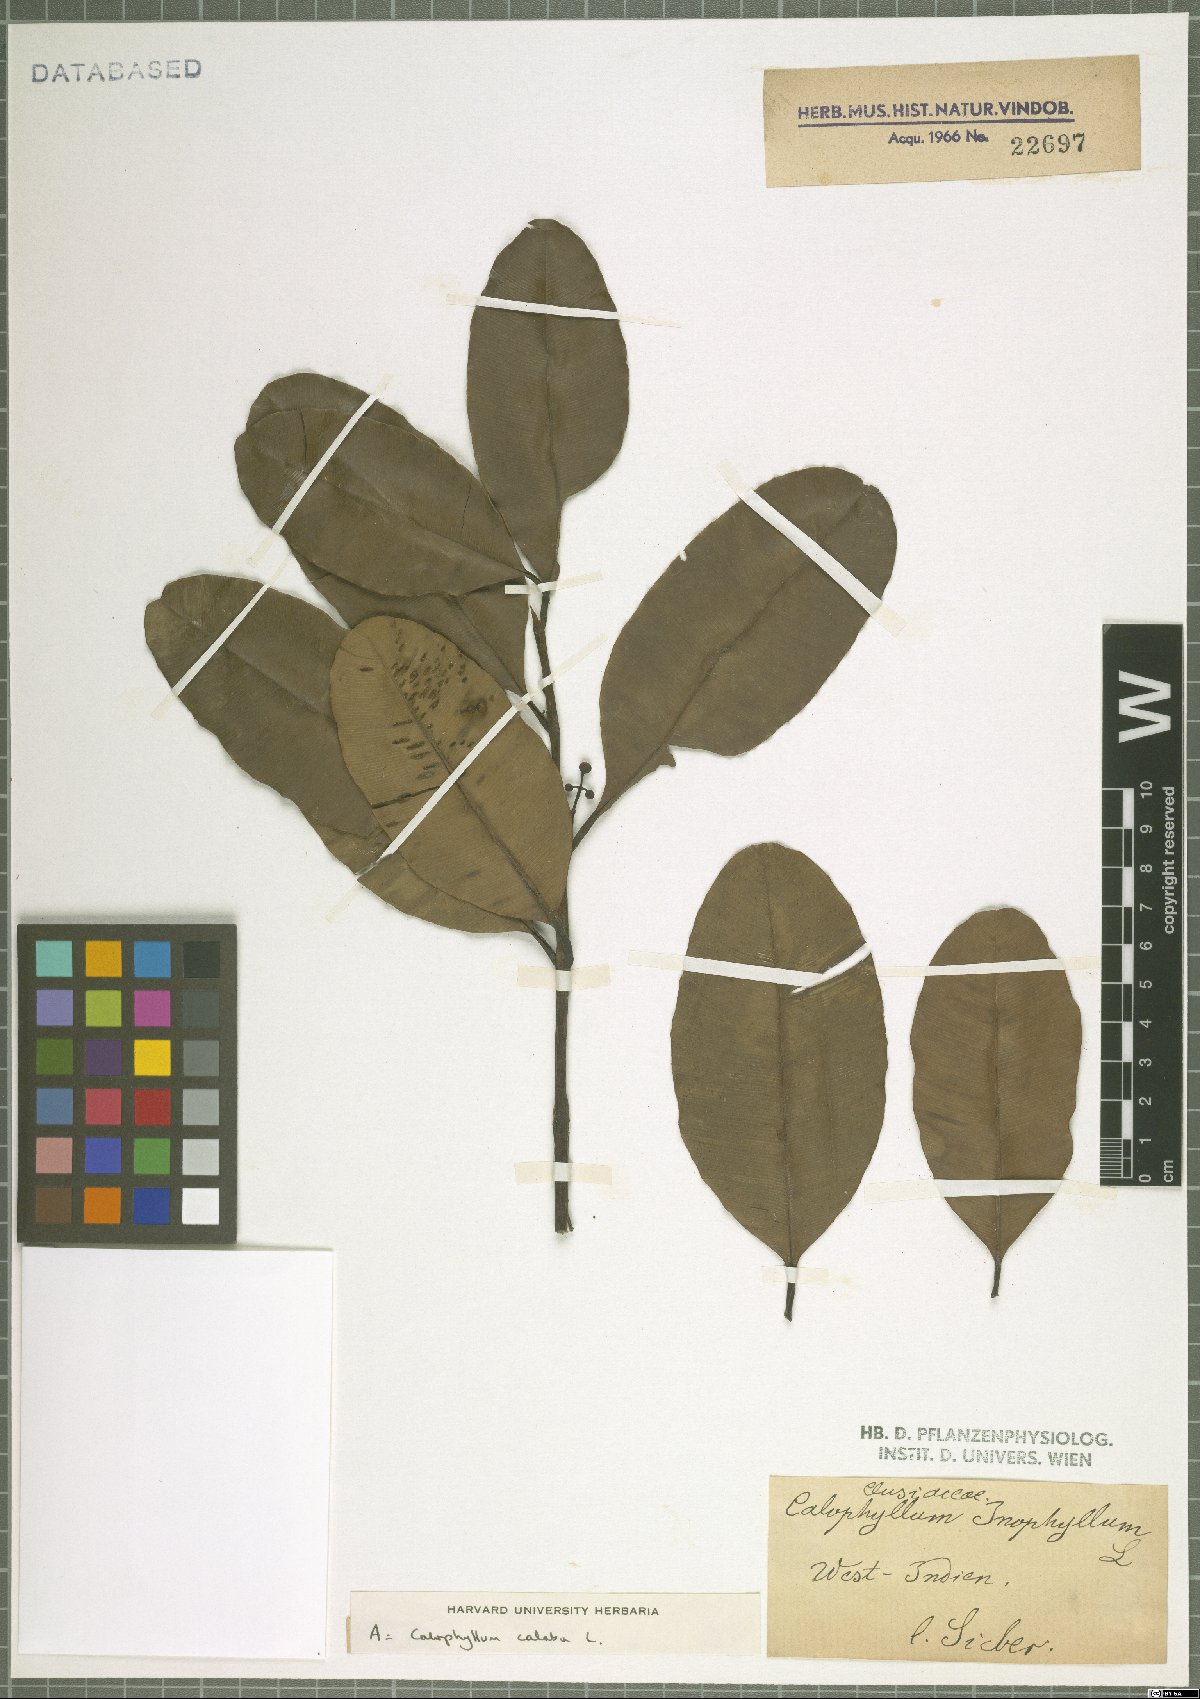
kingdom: Plantae
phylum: Tracheophyta
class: Magnoliopsida
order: Malpighiales
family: Calophyllaceae
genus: Calophyllum
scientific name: Calophyllum calaba
